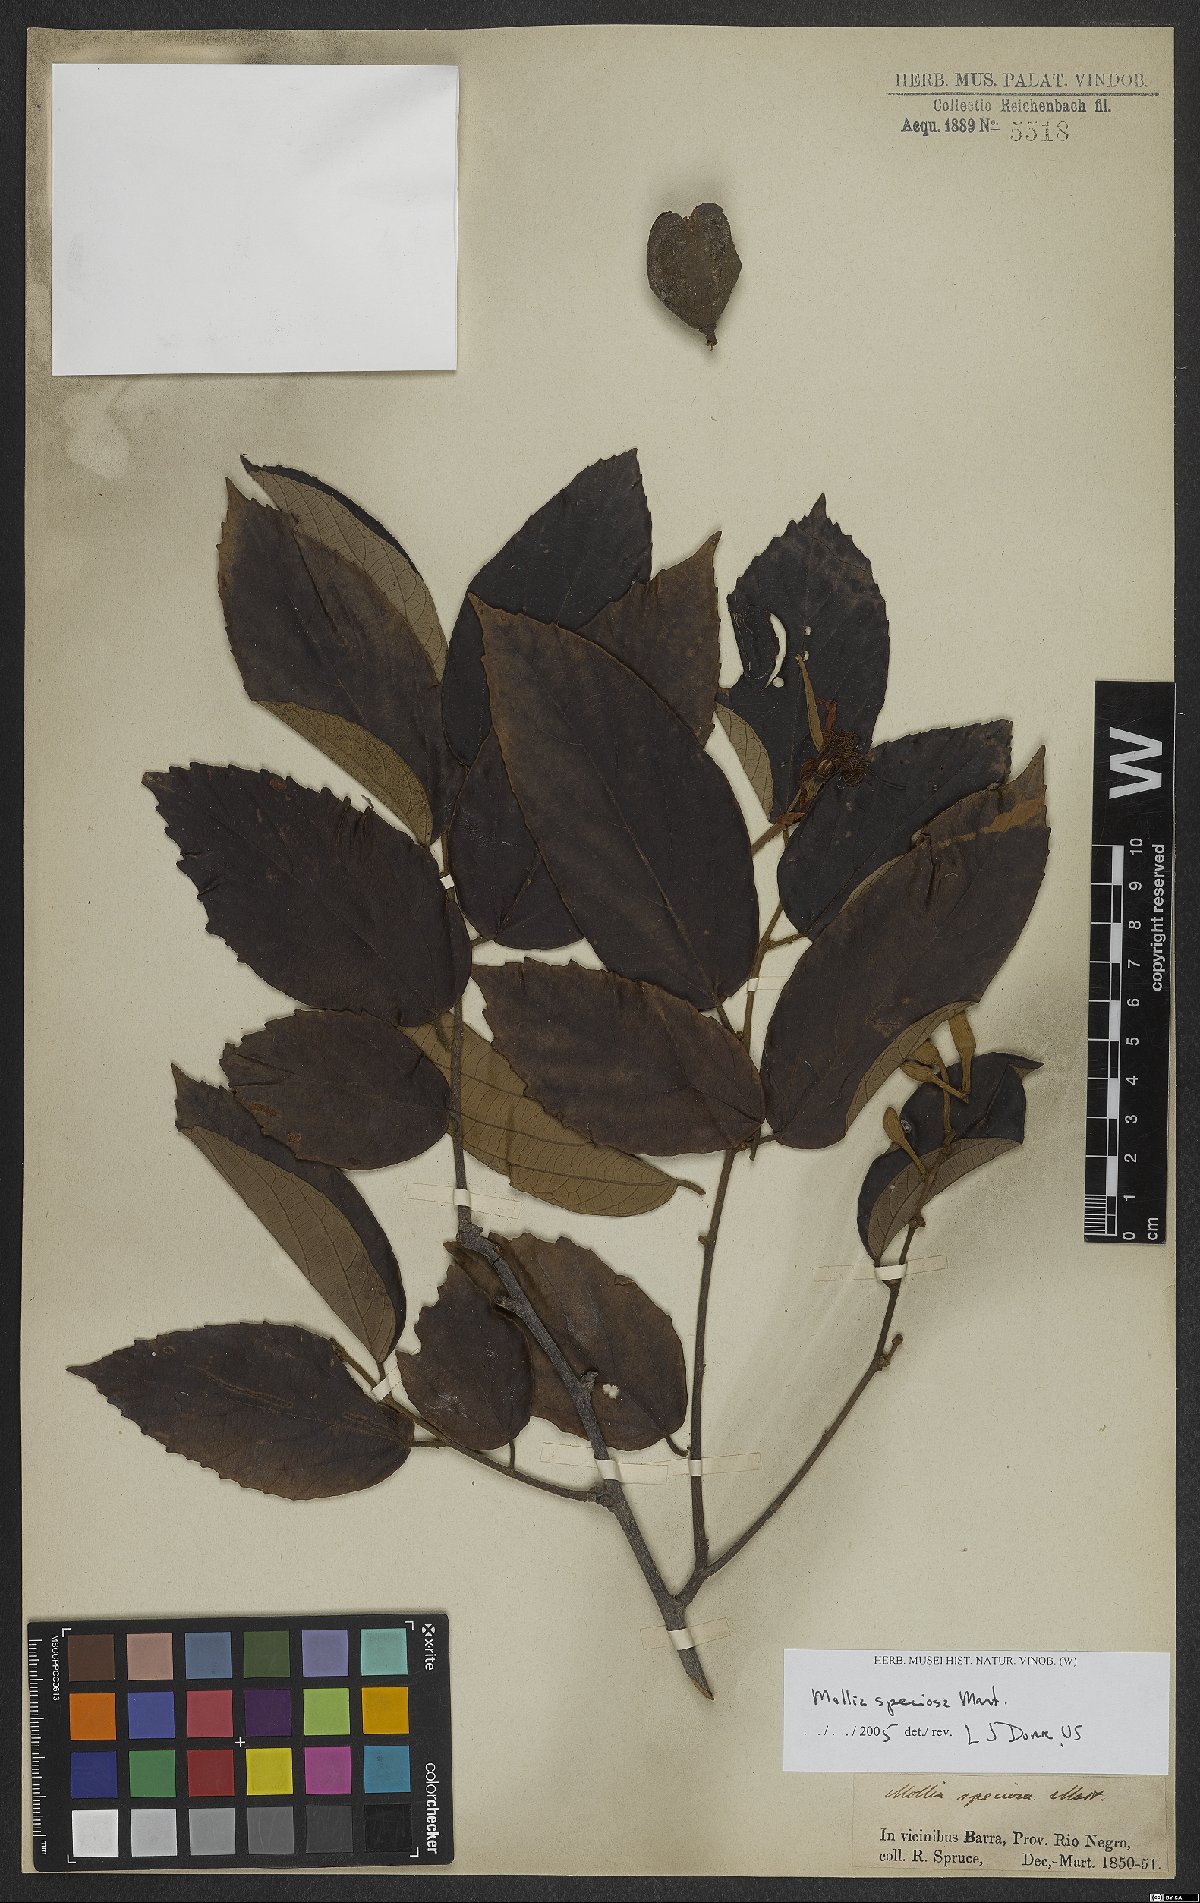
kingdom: Plantae
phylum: Tracheophyta
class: Magnoliopsida
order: Malvales
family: Malvaceae
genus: Mollia
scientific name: Mollia speciosa
